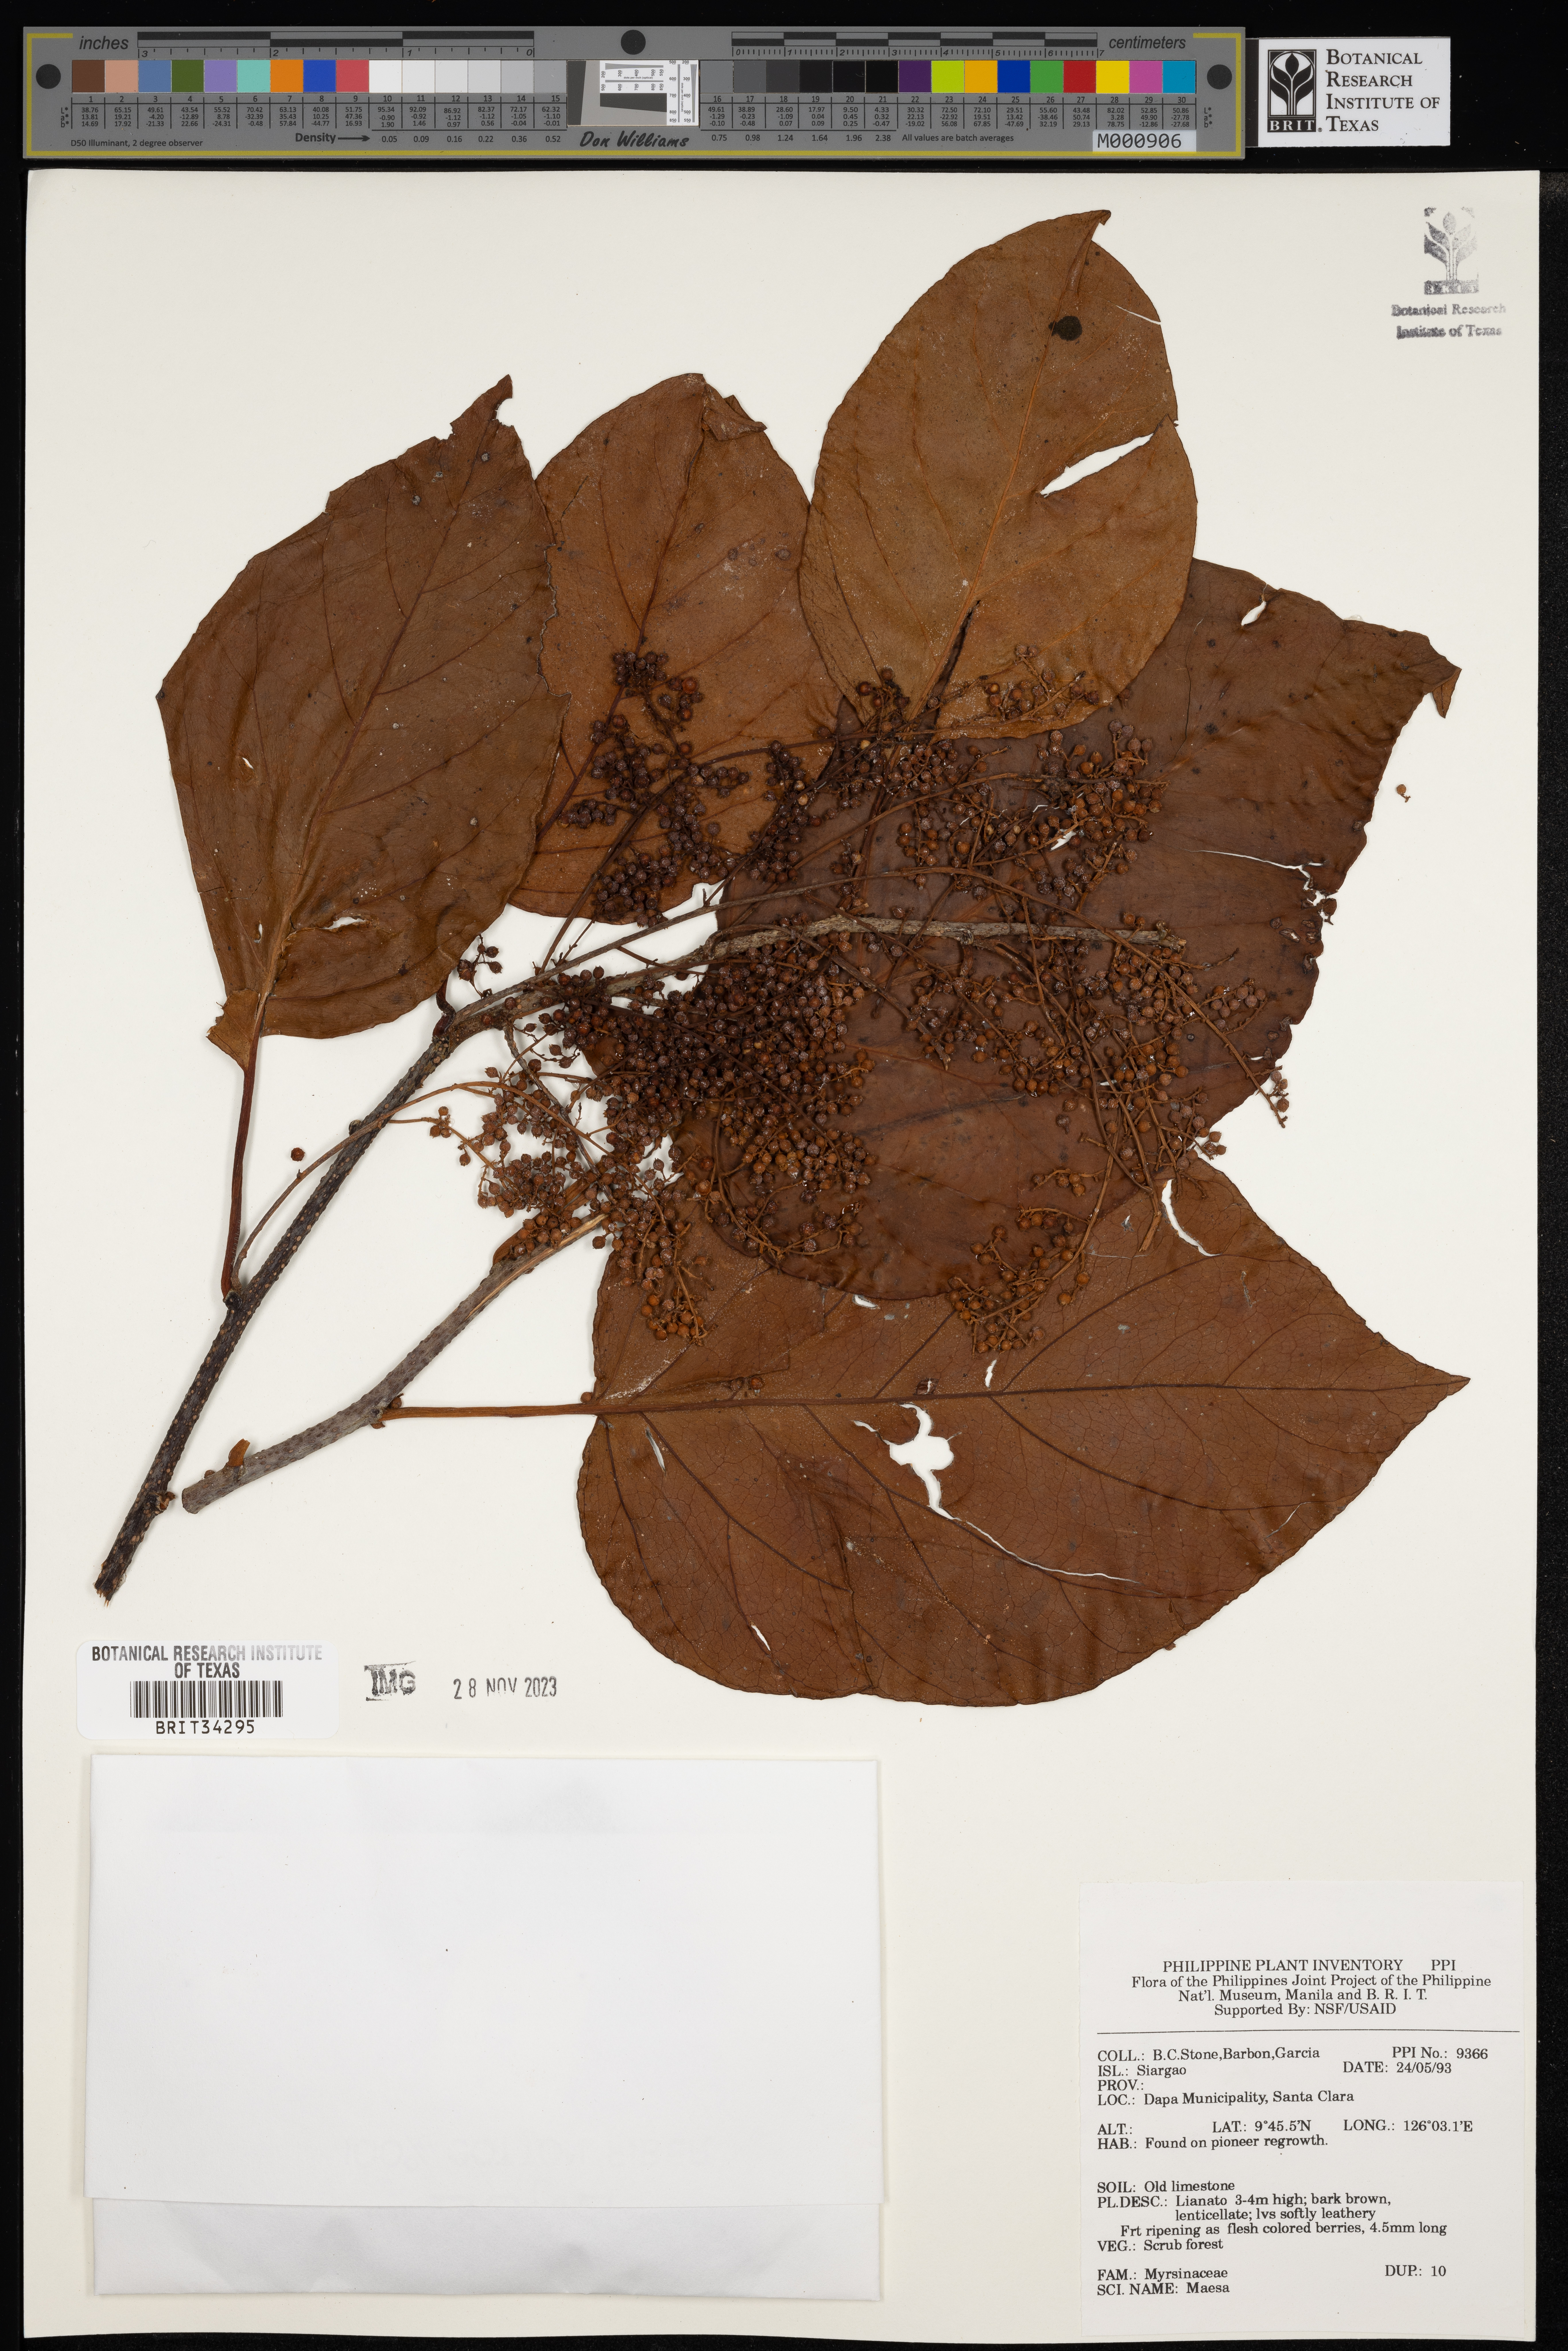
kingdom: Plantae
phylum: Tracheophyta
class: Magnoliopsida
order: Ericales
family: Primulaceae
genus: Maesa
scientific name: Maesa
